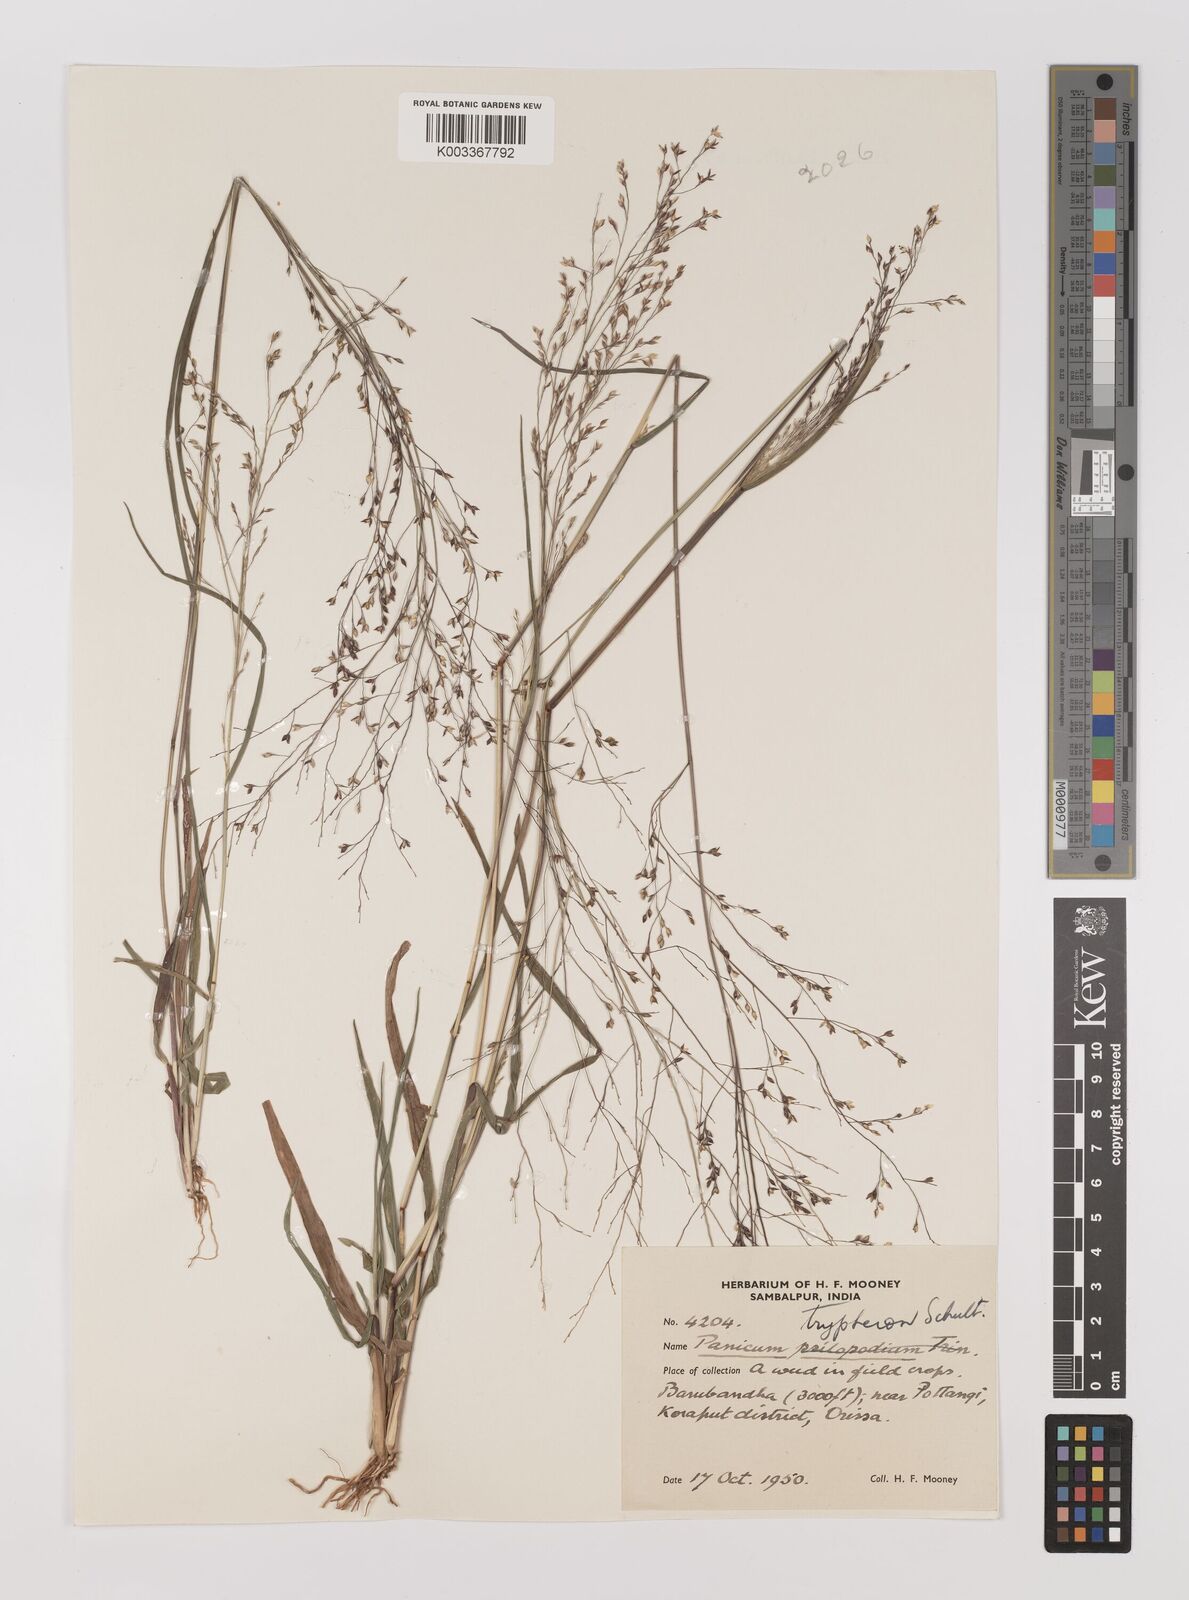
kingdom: Plantae
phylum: Tracheophyta
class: Liliopsida
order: Poales
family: Poaceae
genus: Panicum
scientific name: Panicum curviflorum
